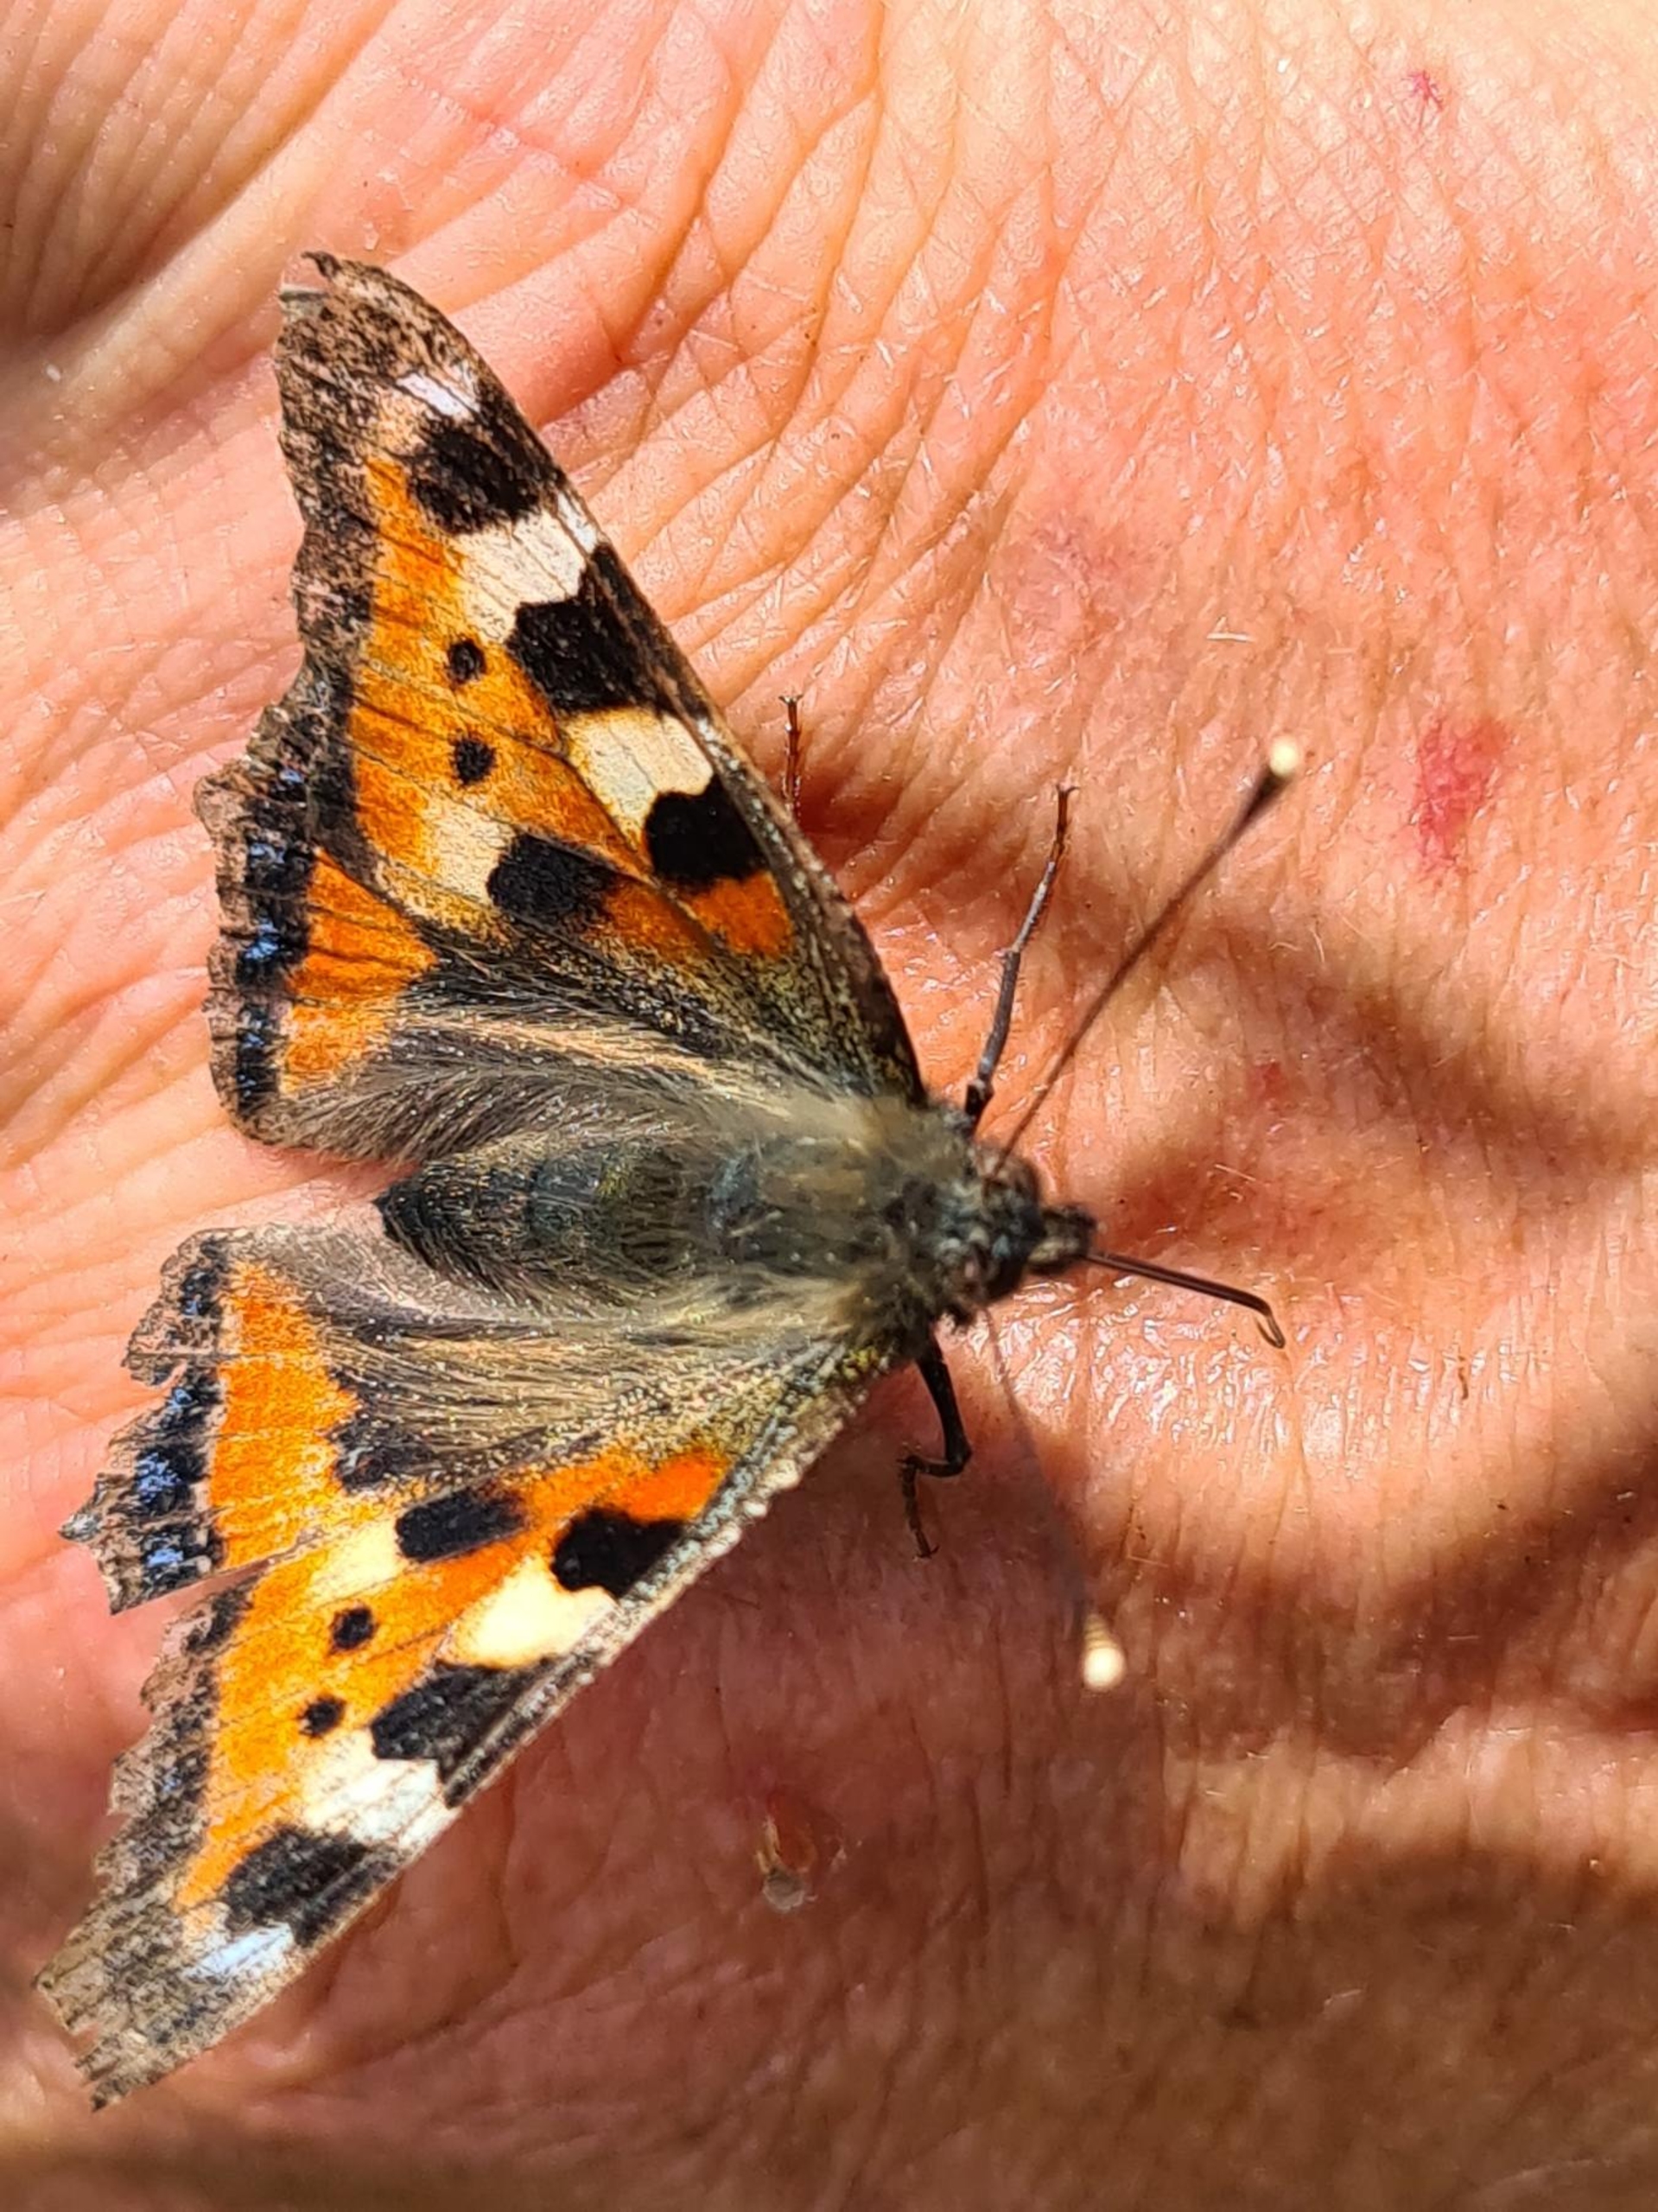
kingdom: Animalia
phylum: Arthropoda
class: Insecta
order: Lepidoptera
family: Nymphalidae
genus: Aglais
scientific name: Aglais urticae
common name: Nældens takvinge
